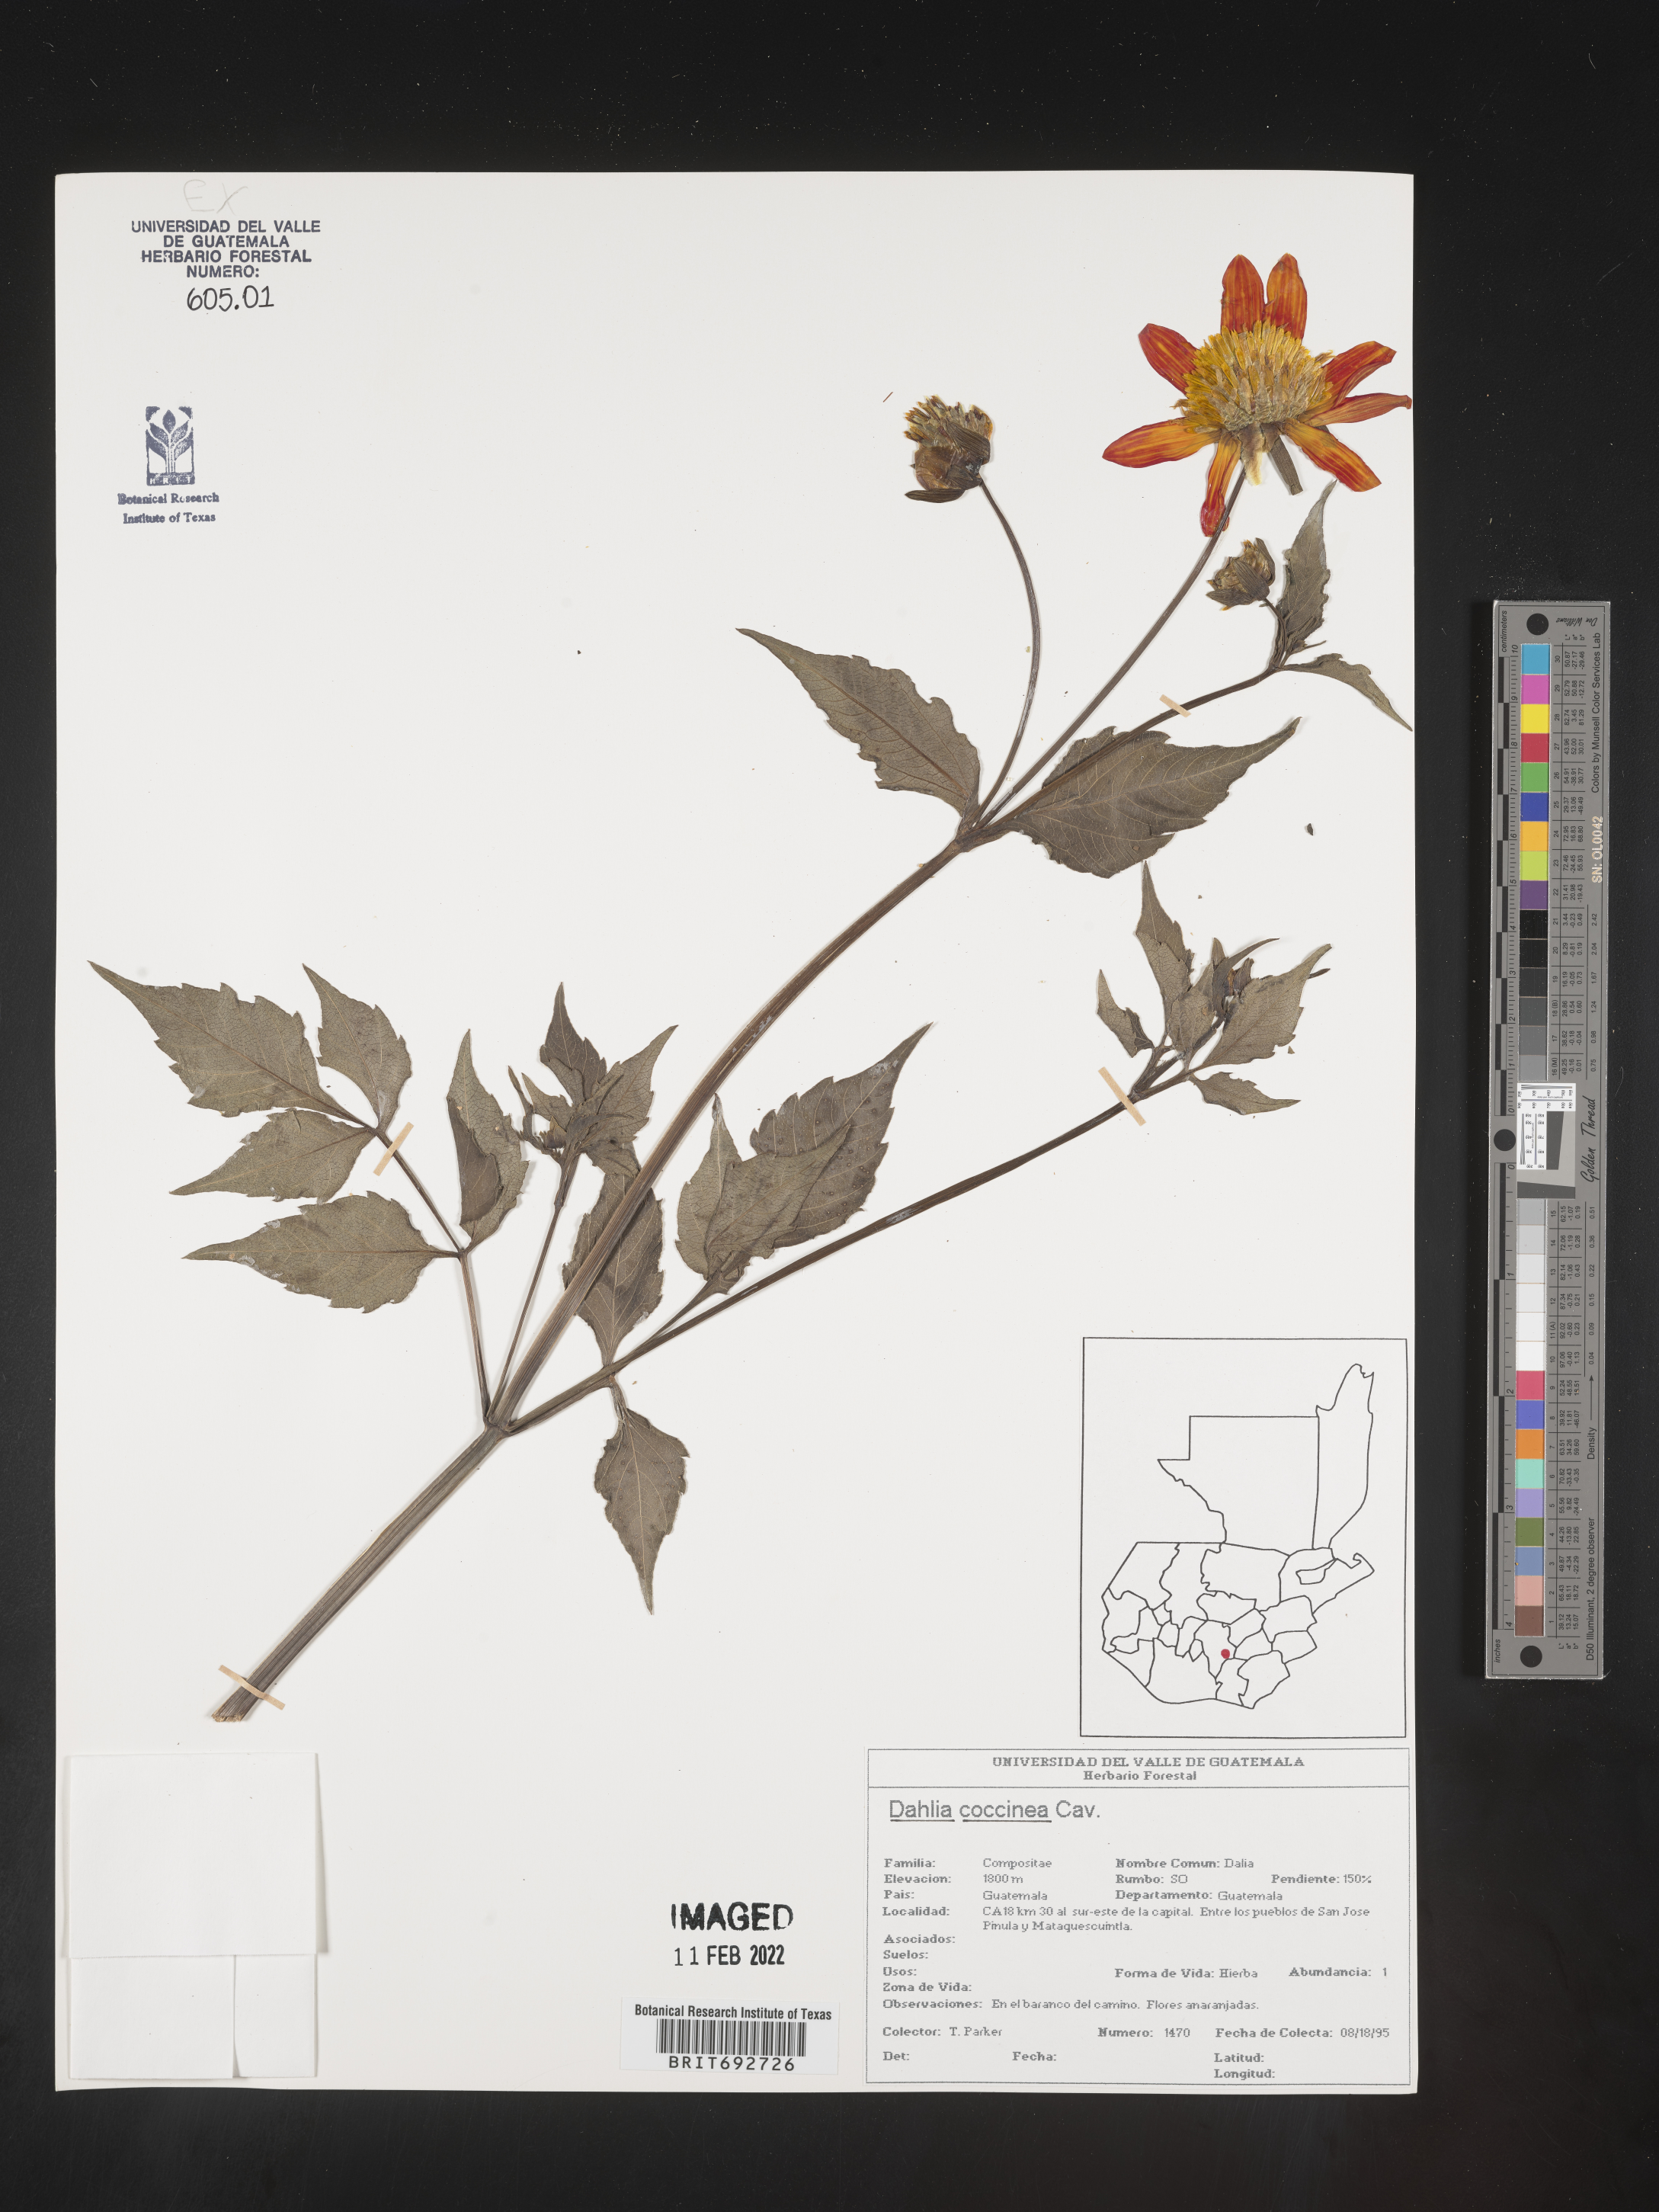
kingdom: Plantae
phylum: Tracheophyta
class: Magnoliopsida
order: Asterales
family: Asteraceae
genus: Dahlia
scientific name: Dahlia
